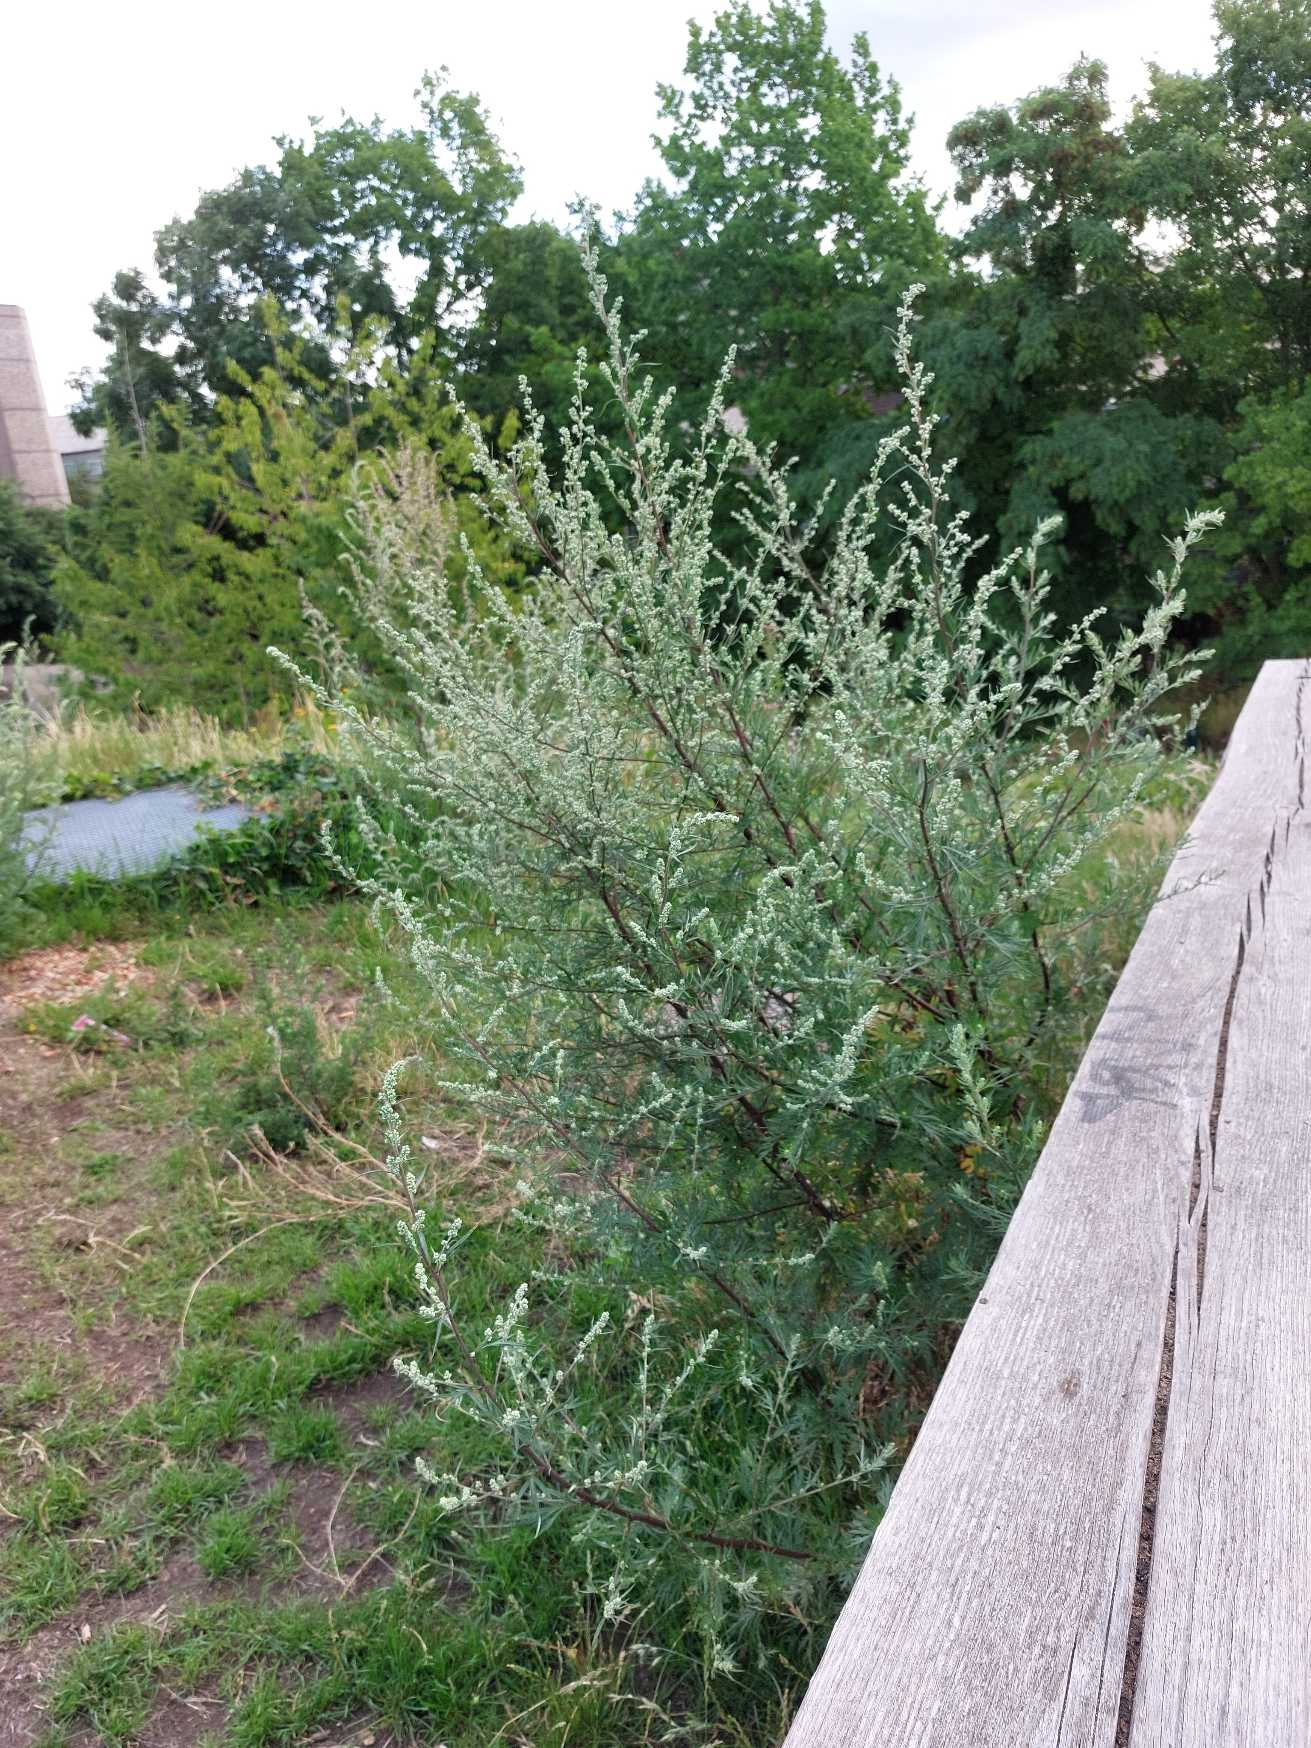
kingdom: Plantae
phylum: Tracheophyta
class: Magnoliopsida
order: Asterales
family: Asteraceae
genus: Artemisia
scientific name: Artemisia vulgaris
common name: Grå-bynke
